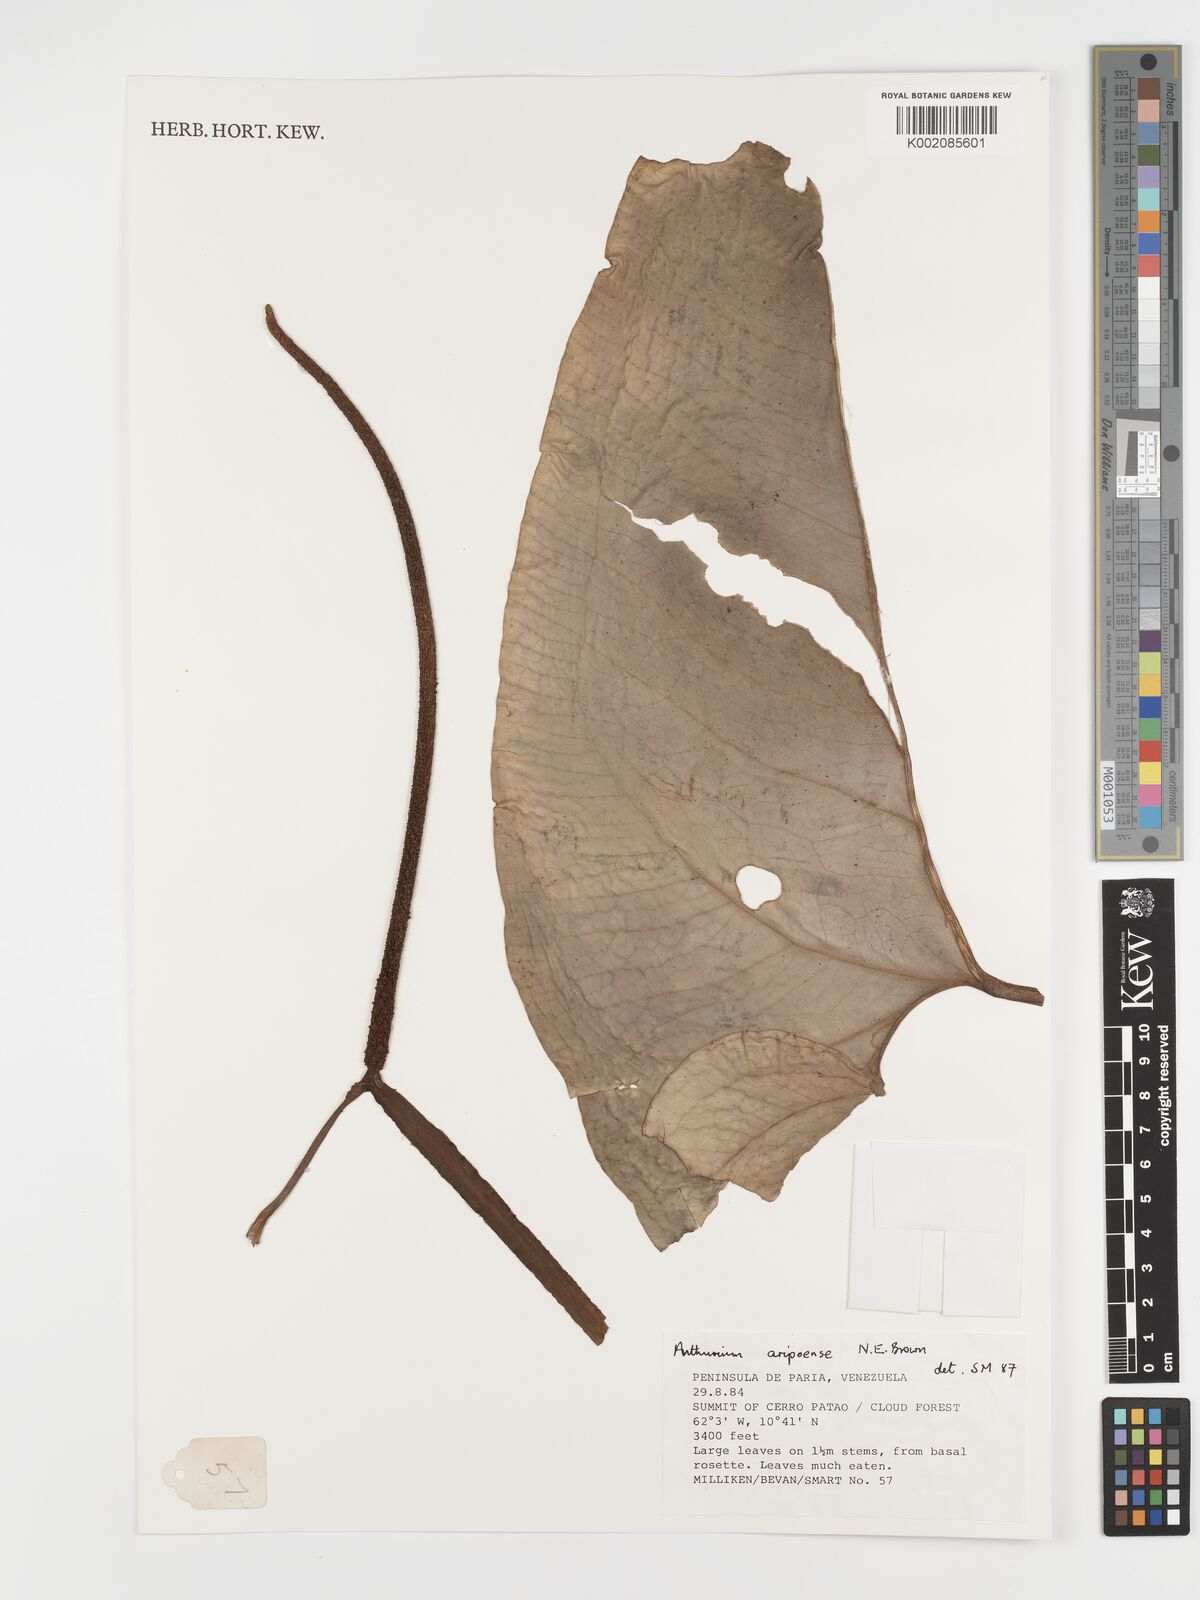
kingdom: Plantae
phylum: Tracheophyta
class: Liliopsida
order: Alismatales
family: Araceae
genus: Anthurium
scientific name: Anthurium aripoense
